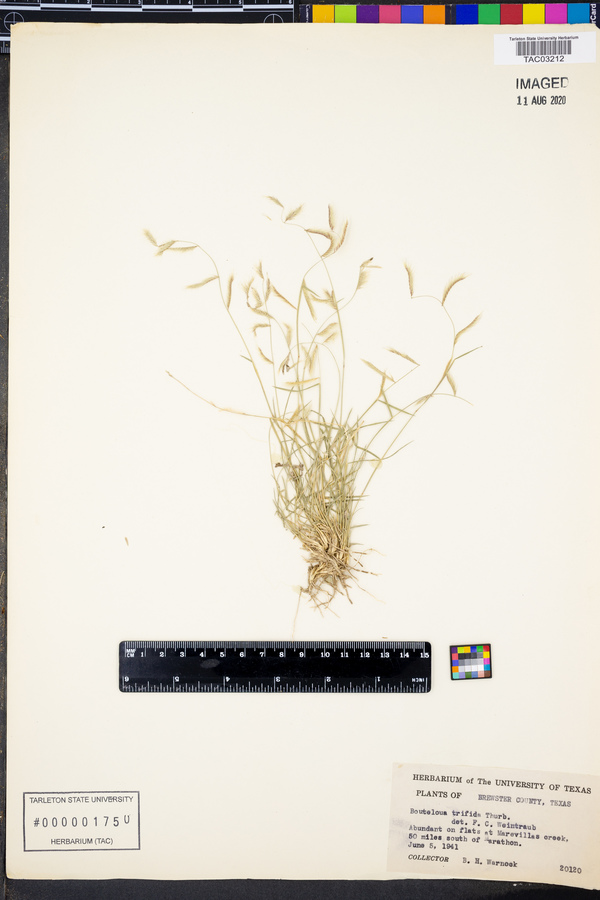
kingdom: Plantae
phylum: Tracheophyta
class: Liliopsida
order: Poales
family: Poaceae
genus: Bouteloua
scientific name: Bouteloua trifida
